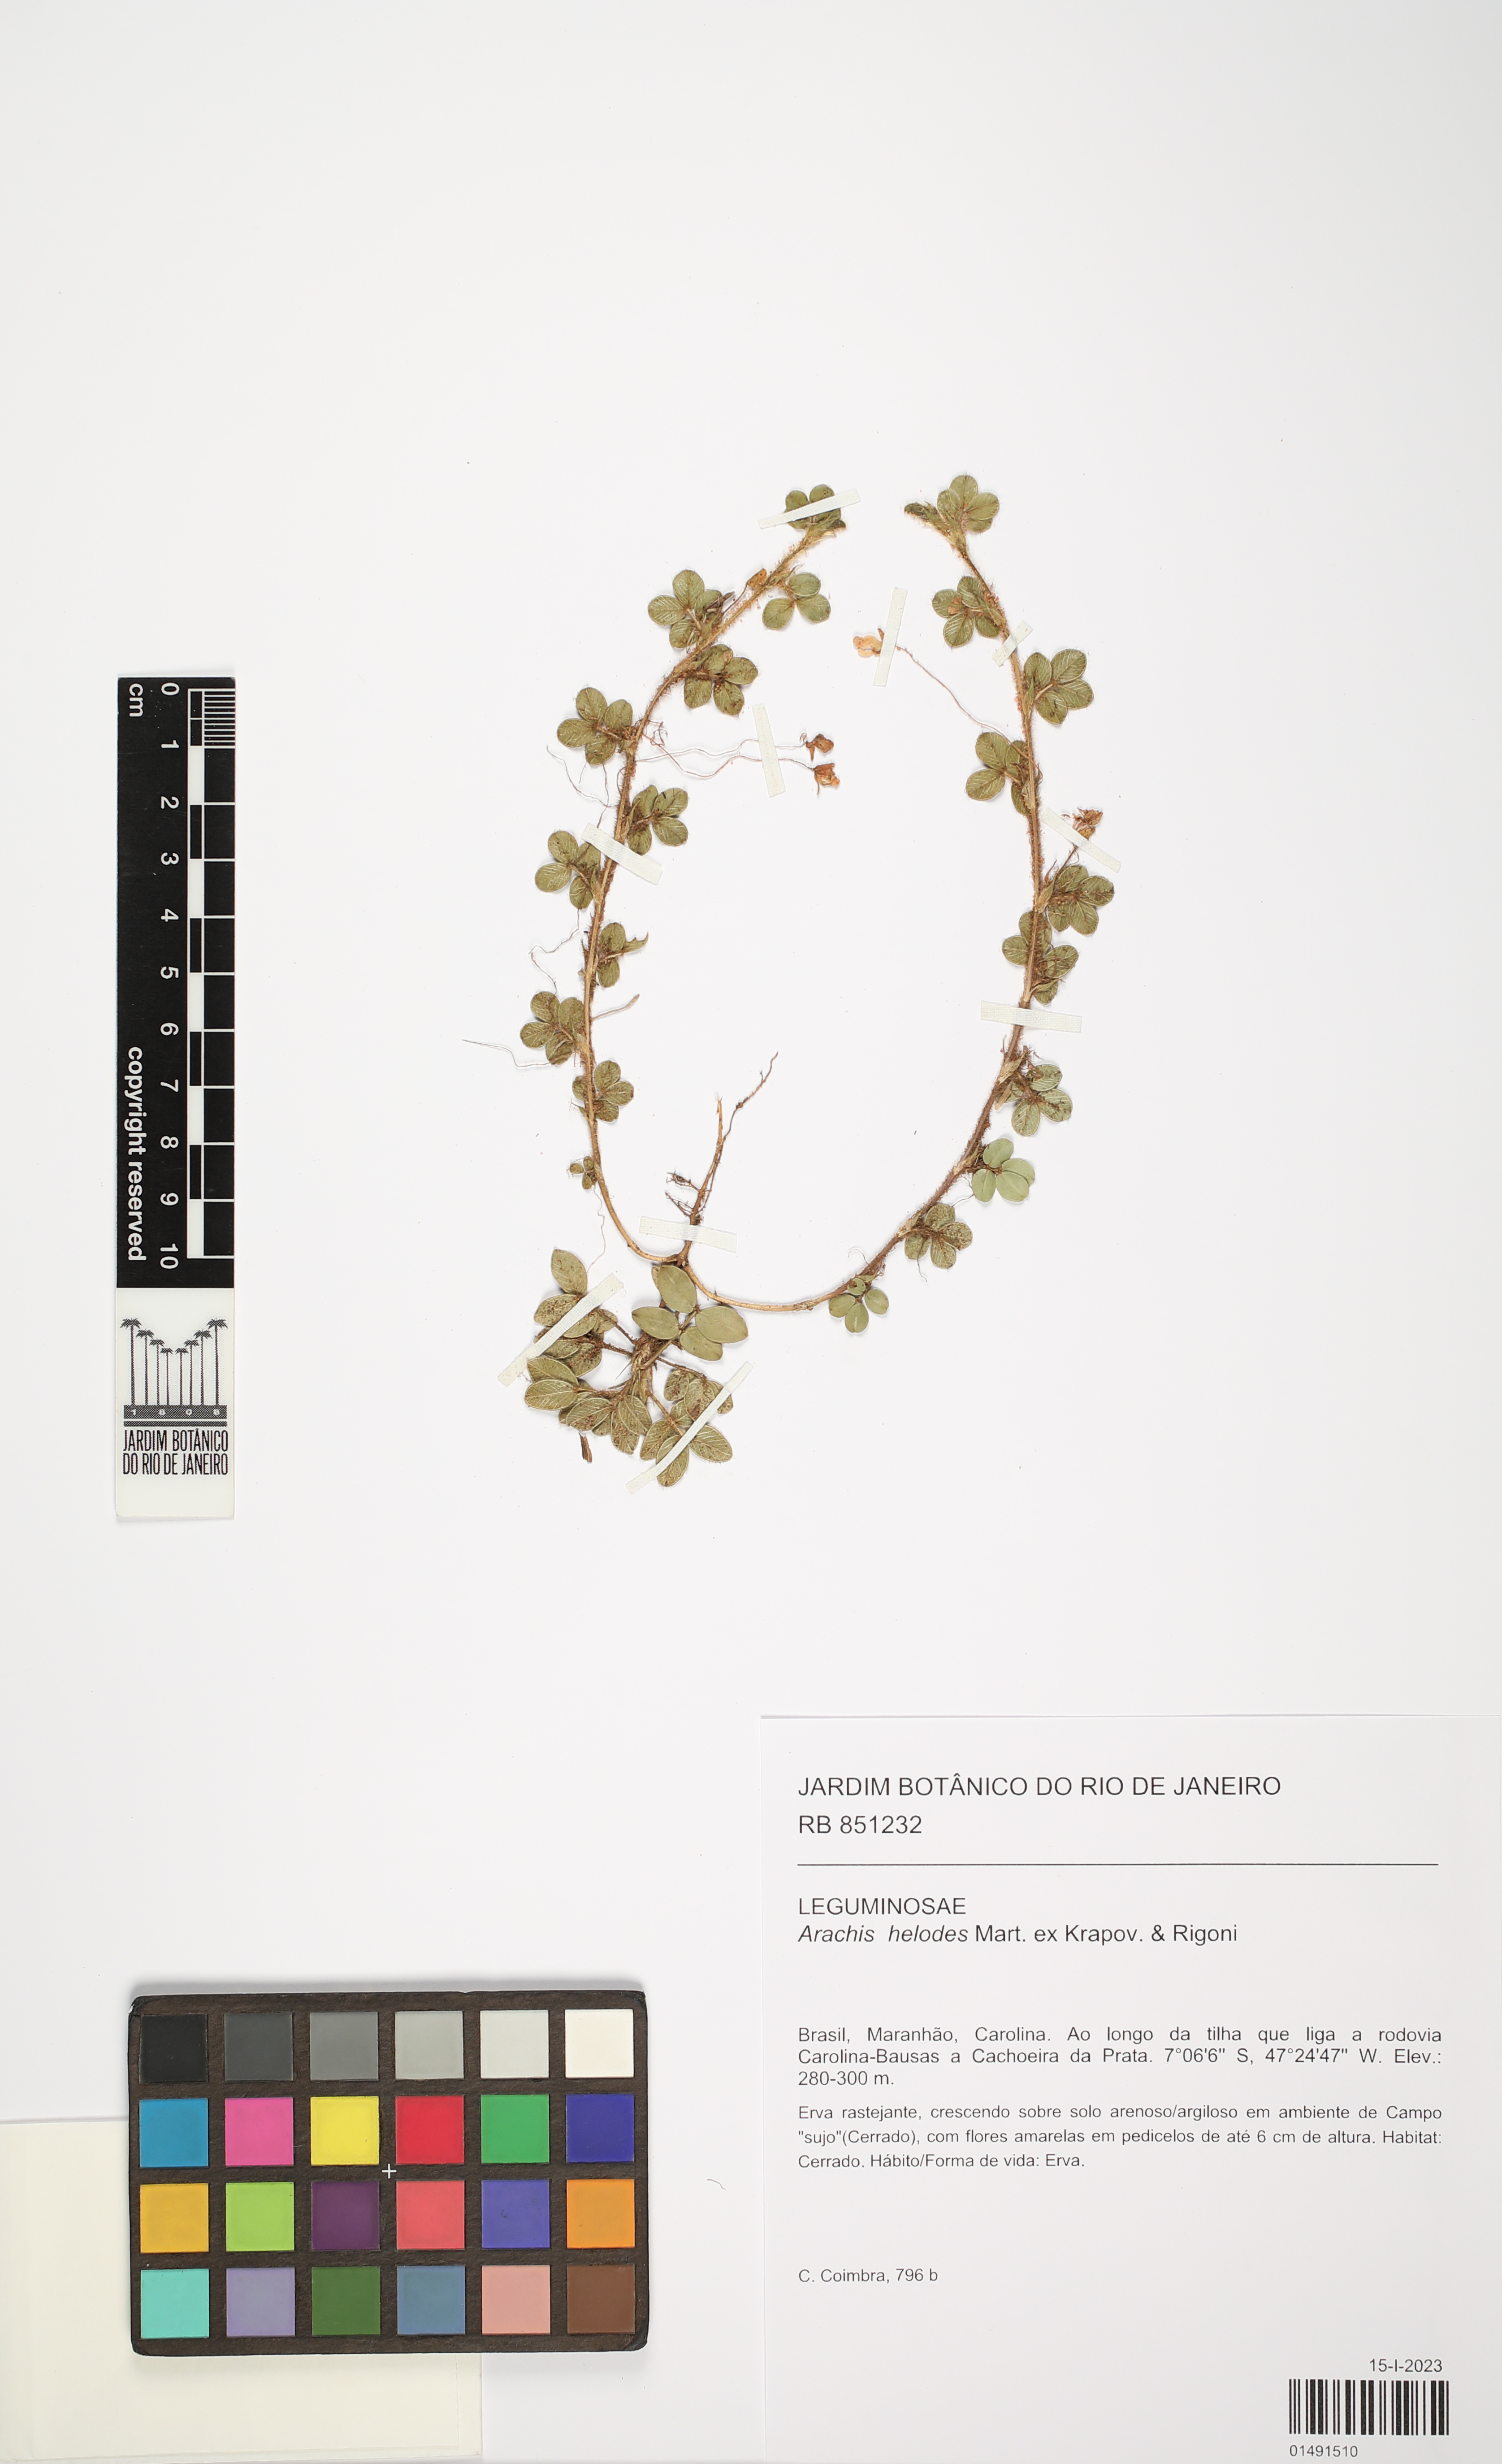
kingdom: Plantae
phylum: Tracheophyta
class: Magnoliopsida
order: Fabales
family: Fabaceae
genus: Arachis
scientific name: Arachis helodes
